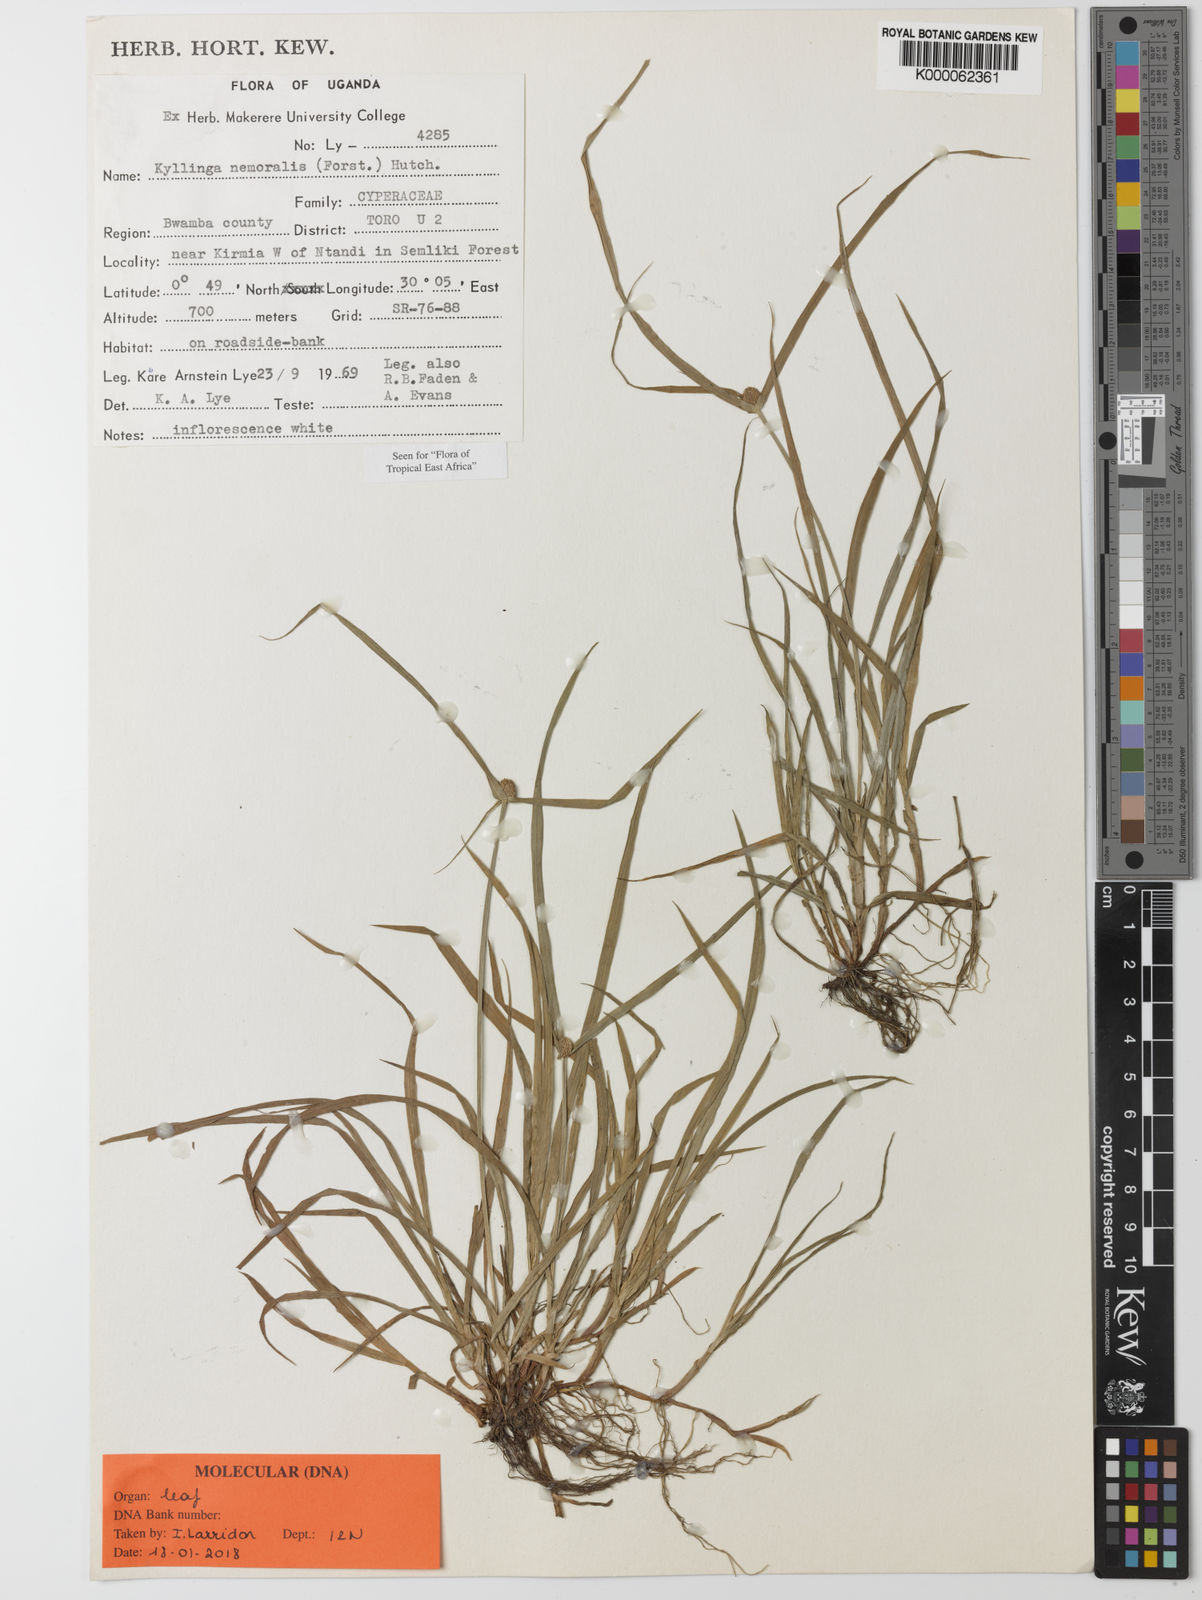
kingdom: Plantae
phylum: Tracheophyta
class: Liliopsida
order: Poales
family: Cyperaceae
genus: Cyperus
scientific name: Cyperus nemoralis
